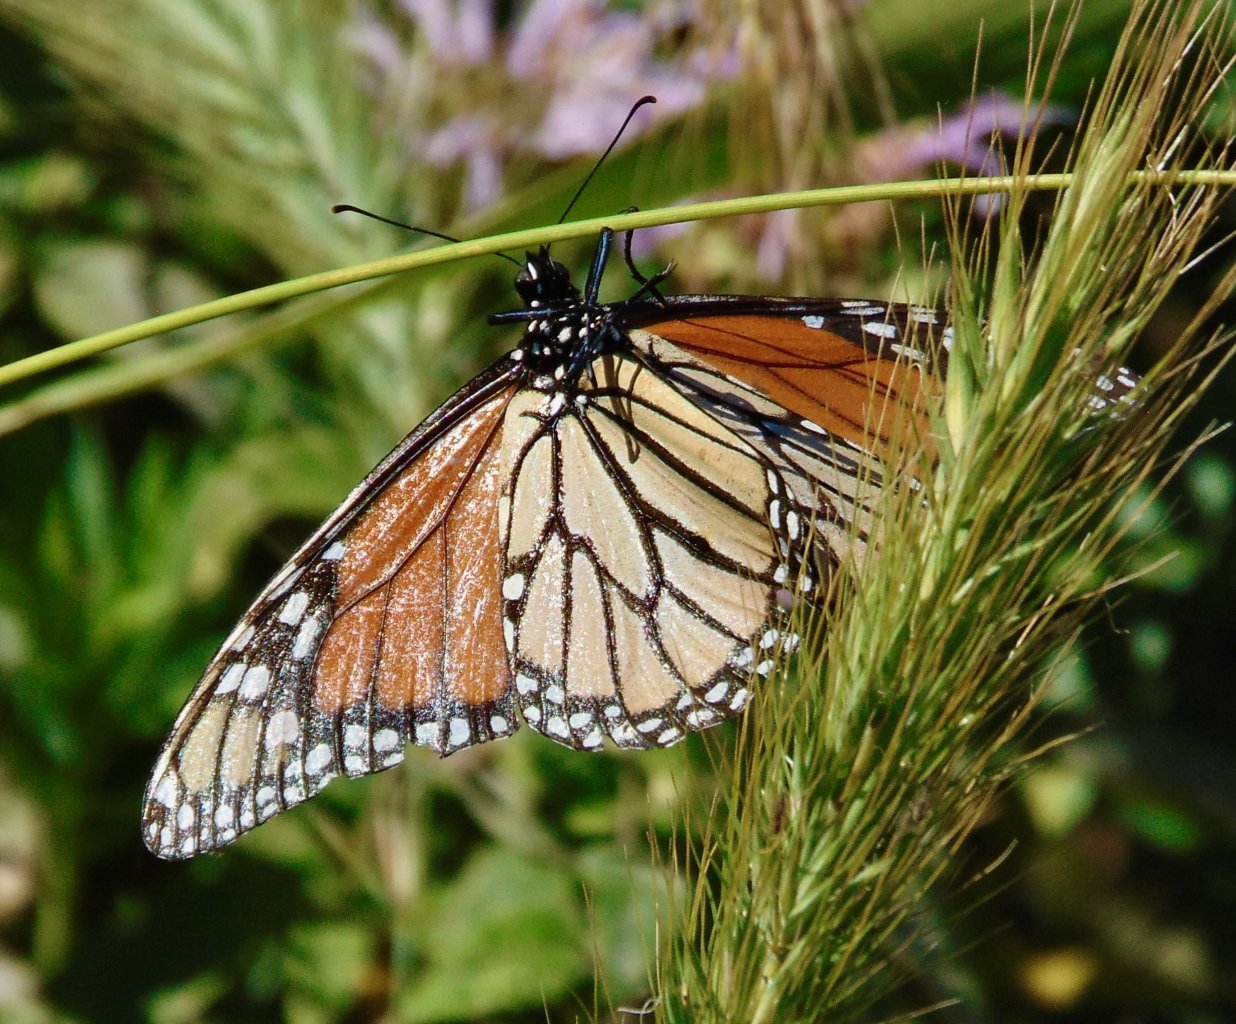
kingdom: Animalia
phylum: Arthropoda
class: Insecta
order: Lepidoptera
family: Nymphalidae
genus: Danaus
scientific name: Danaus plexippus
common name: Monarch
